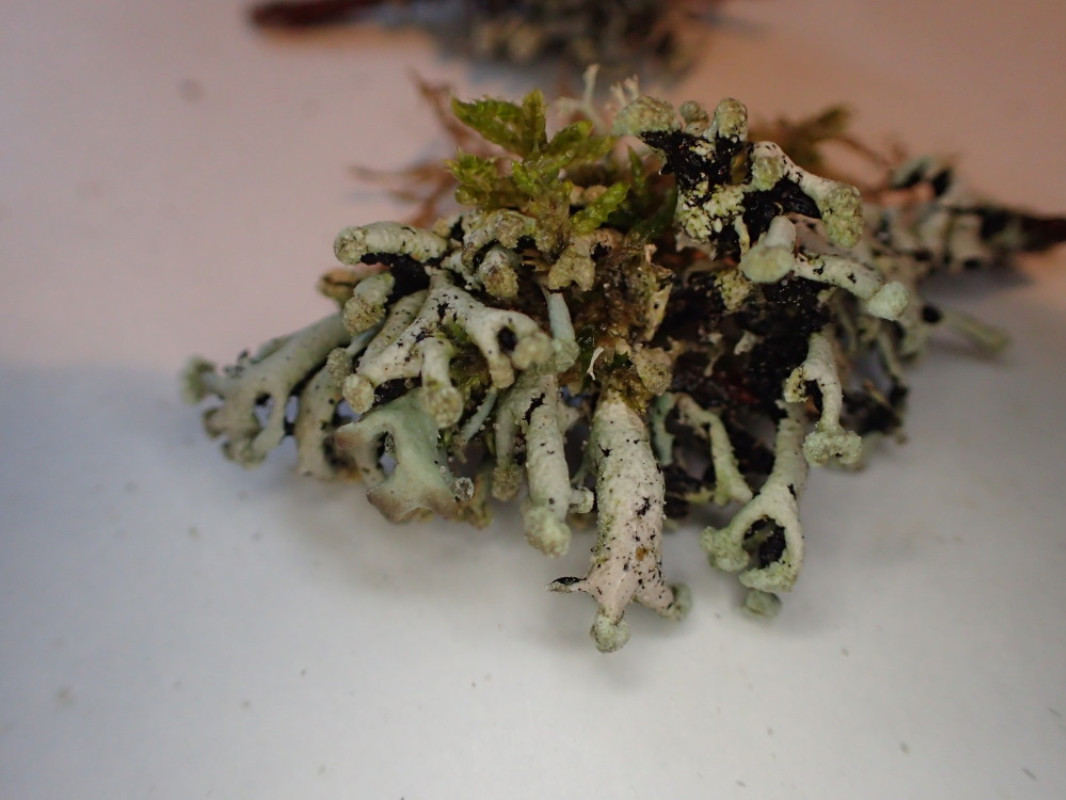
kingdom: Fungi
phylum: Ascomycota
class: Lecanoromycetes
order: Lecanorales
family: Parmeliaceae
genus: Hypogymnia
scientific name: Hypogymnia tubulosa
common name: finger-kvistlav
